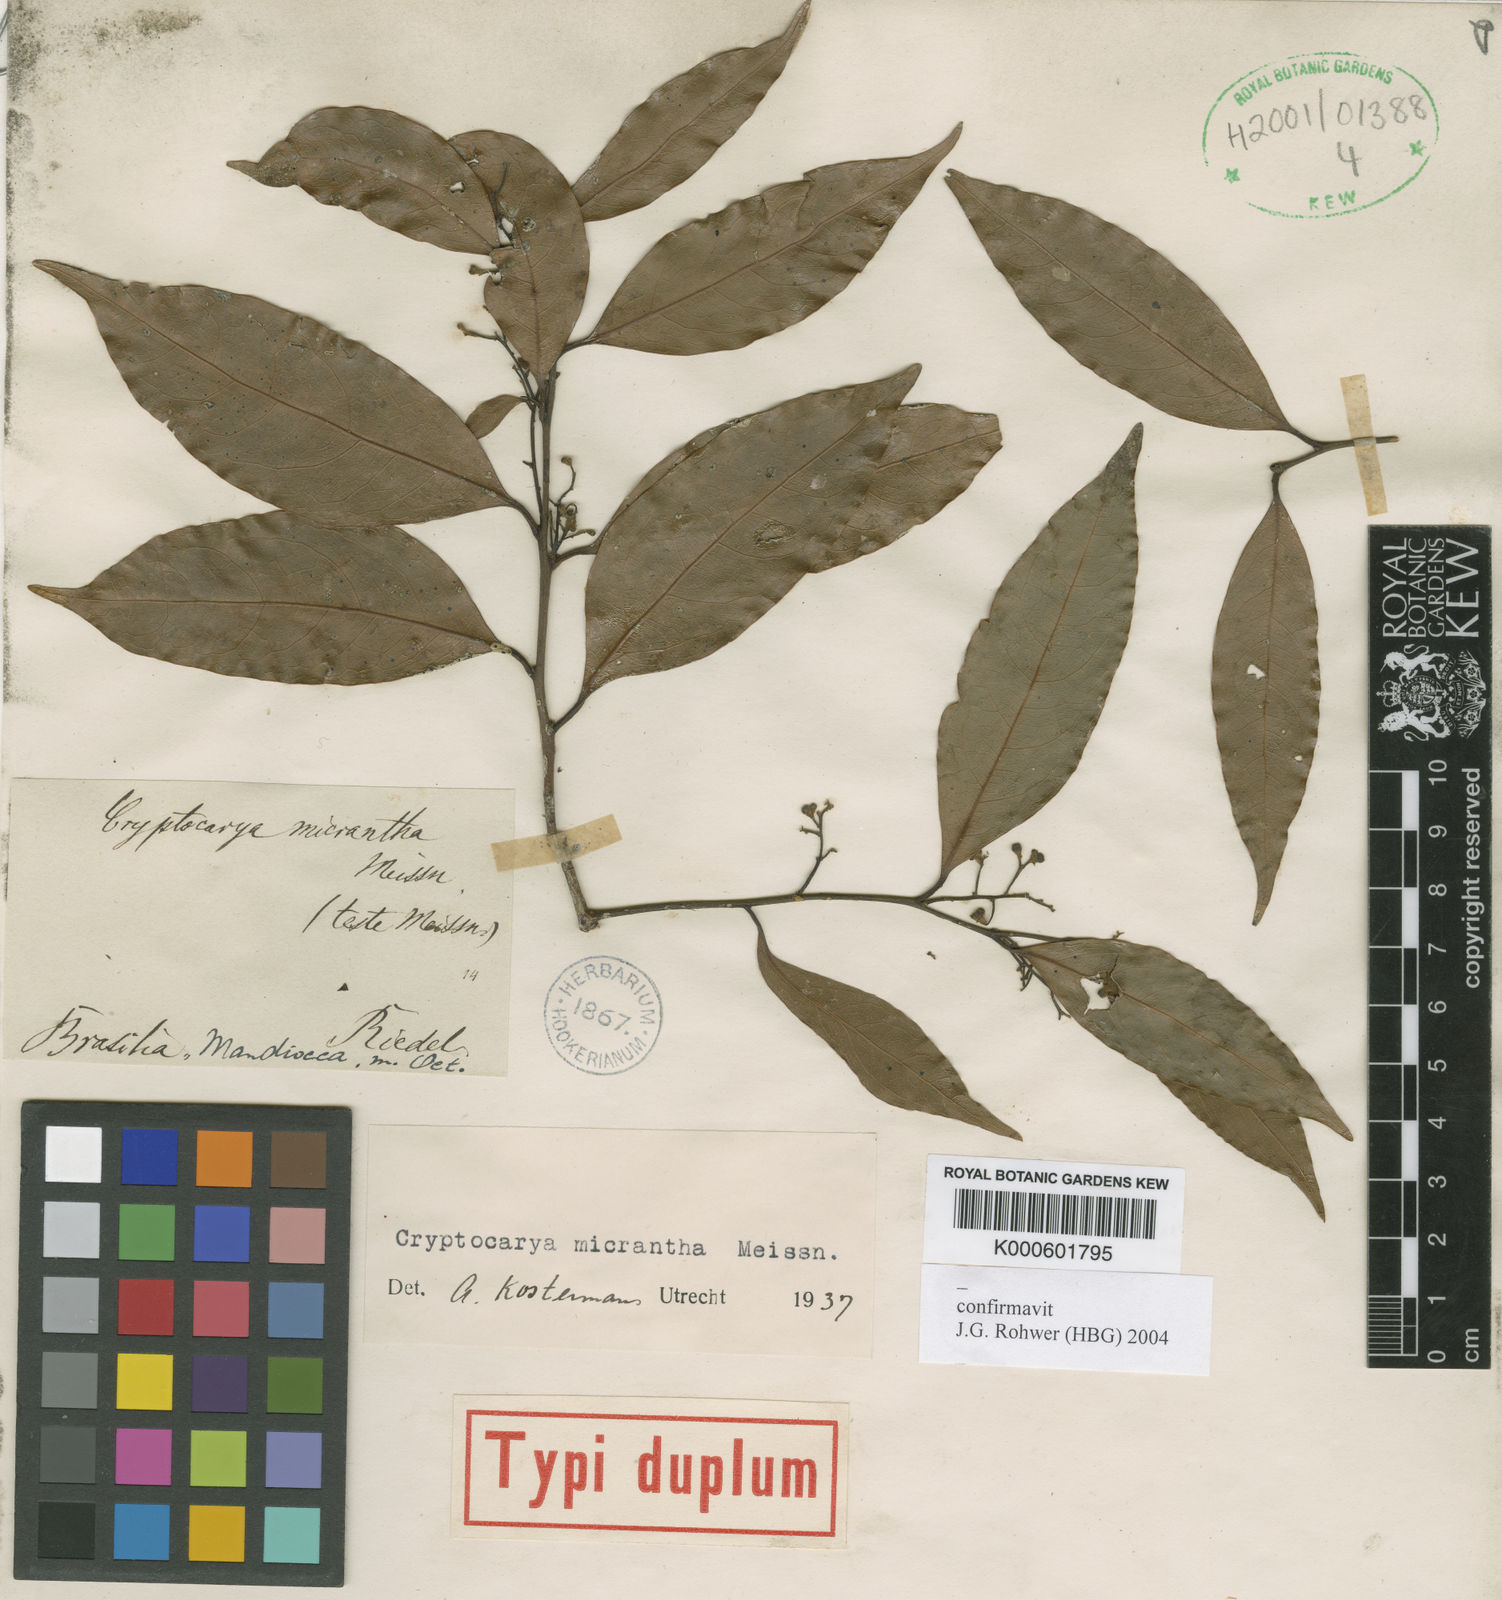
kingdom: Plantae
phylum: Tracheophyta
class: Magnoliopsida
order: Laurales
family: Lauraceae
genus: Cryptocarya
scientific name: Cryptocarya micrantha
